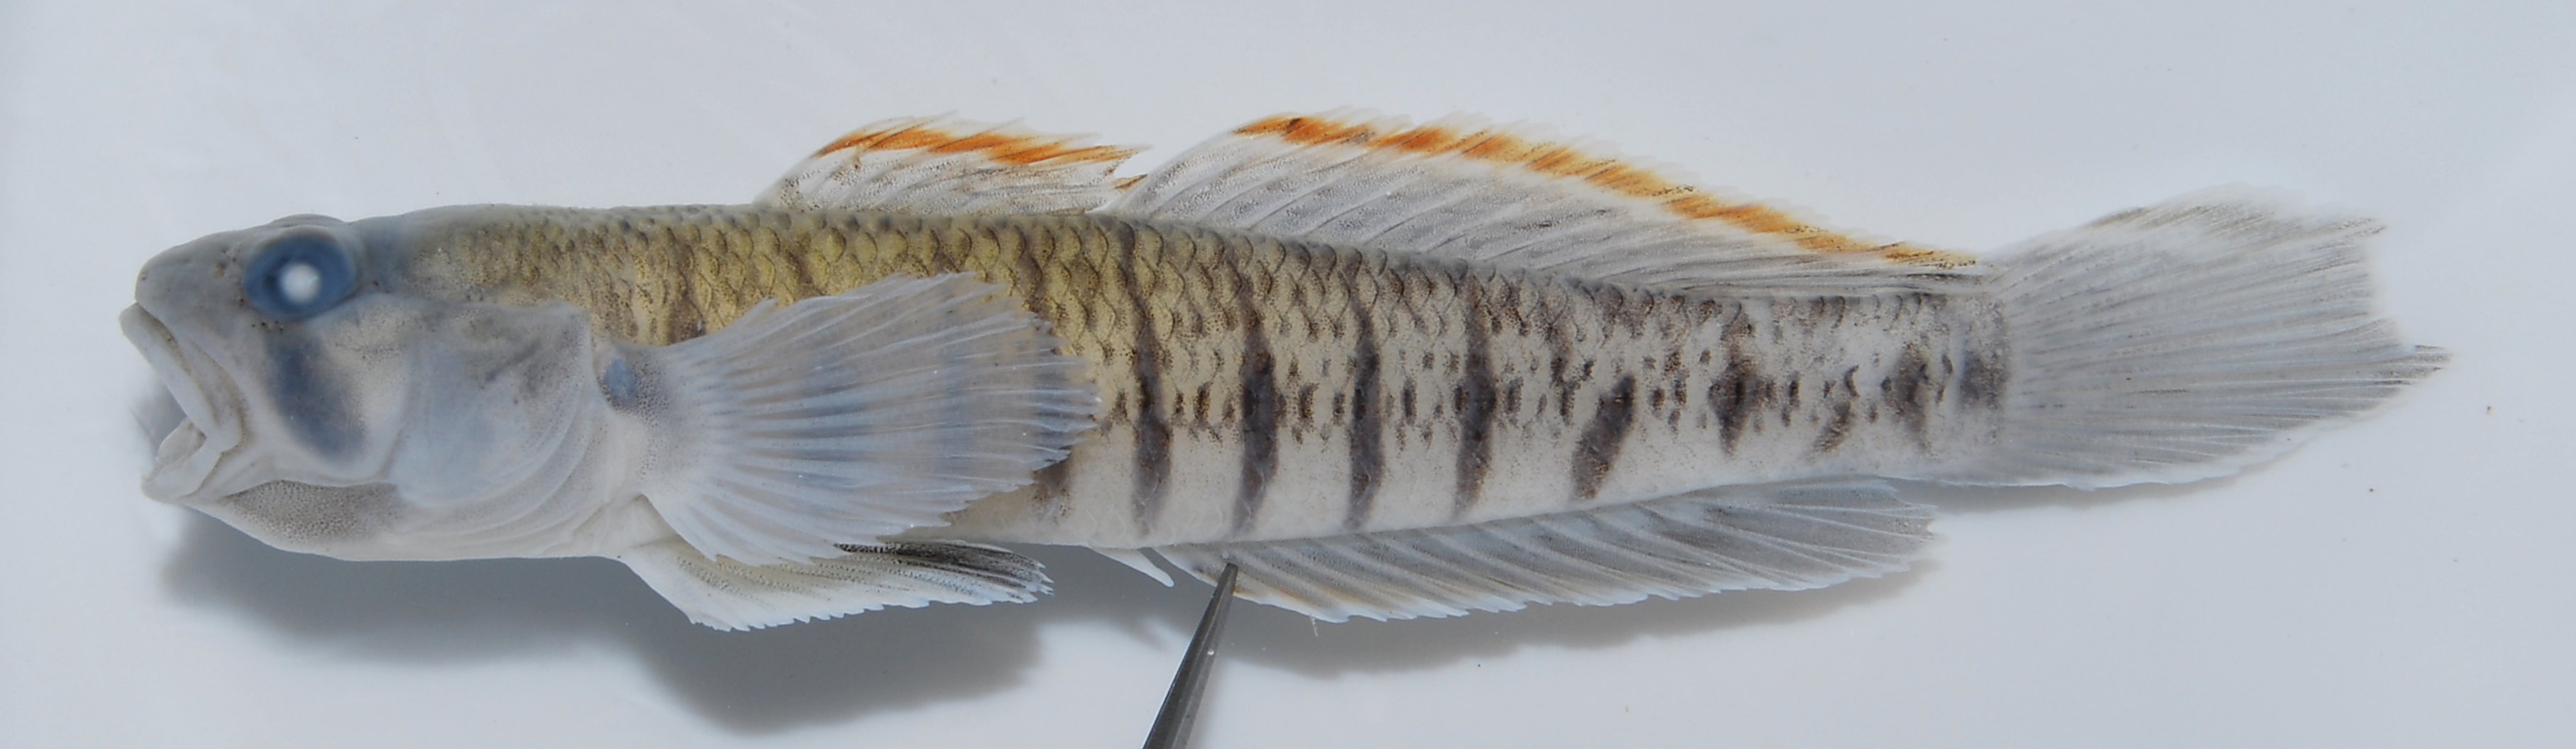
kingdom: Animalia
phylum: Chordata
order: Perciformes
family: Gobiidae
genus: Stenogobius
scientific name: Stenogobius polyzona
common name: Chinestripe goby
